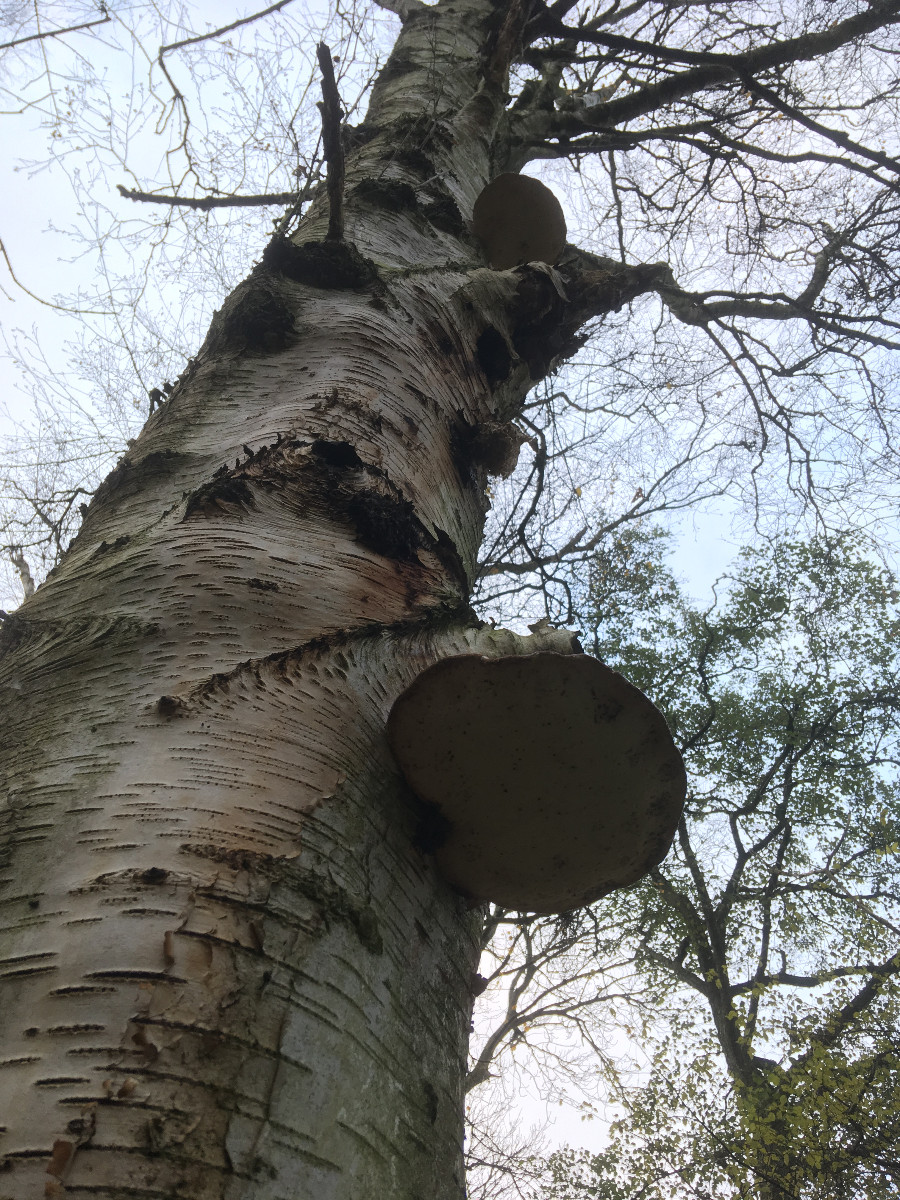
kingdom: Fungi
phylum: Basidiomycota
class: Agaricomycetes
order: Polyporales
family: Fomitopsidaceae
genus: Fomitopsis
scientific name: Fomitopsis betulina
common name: birkeporesvamp
